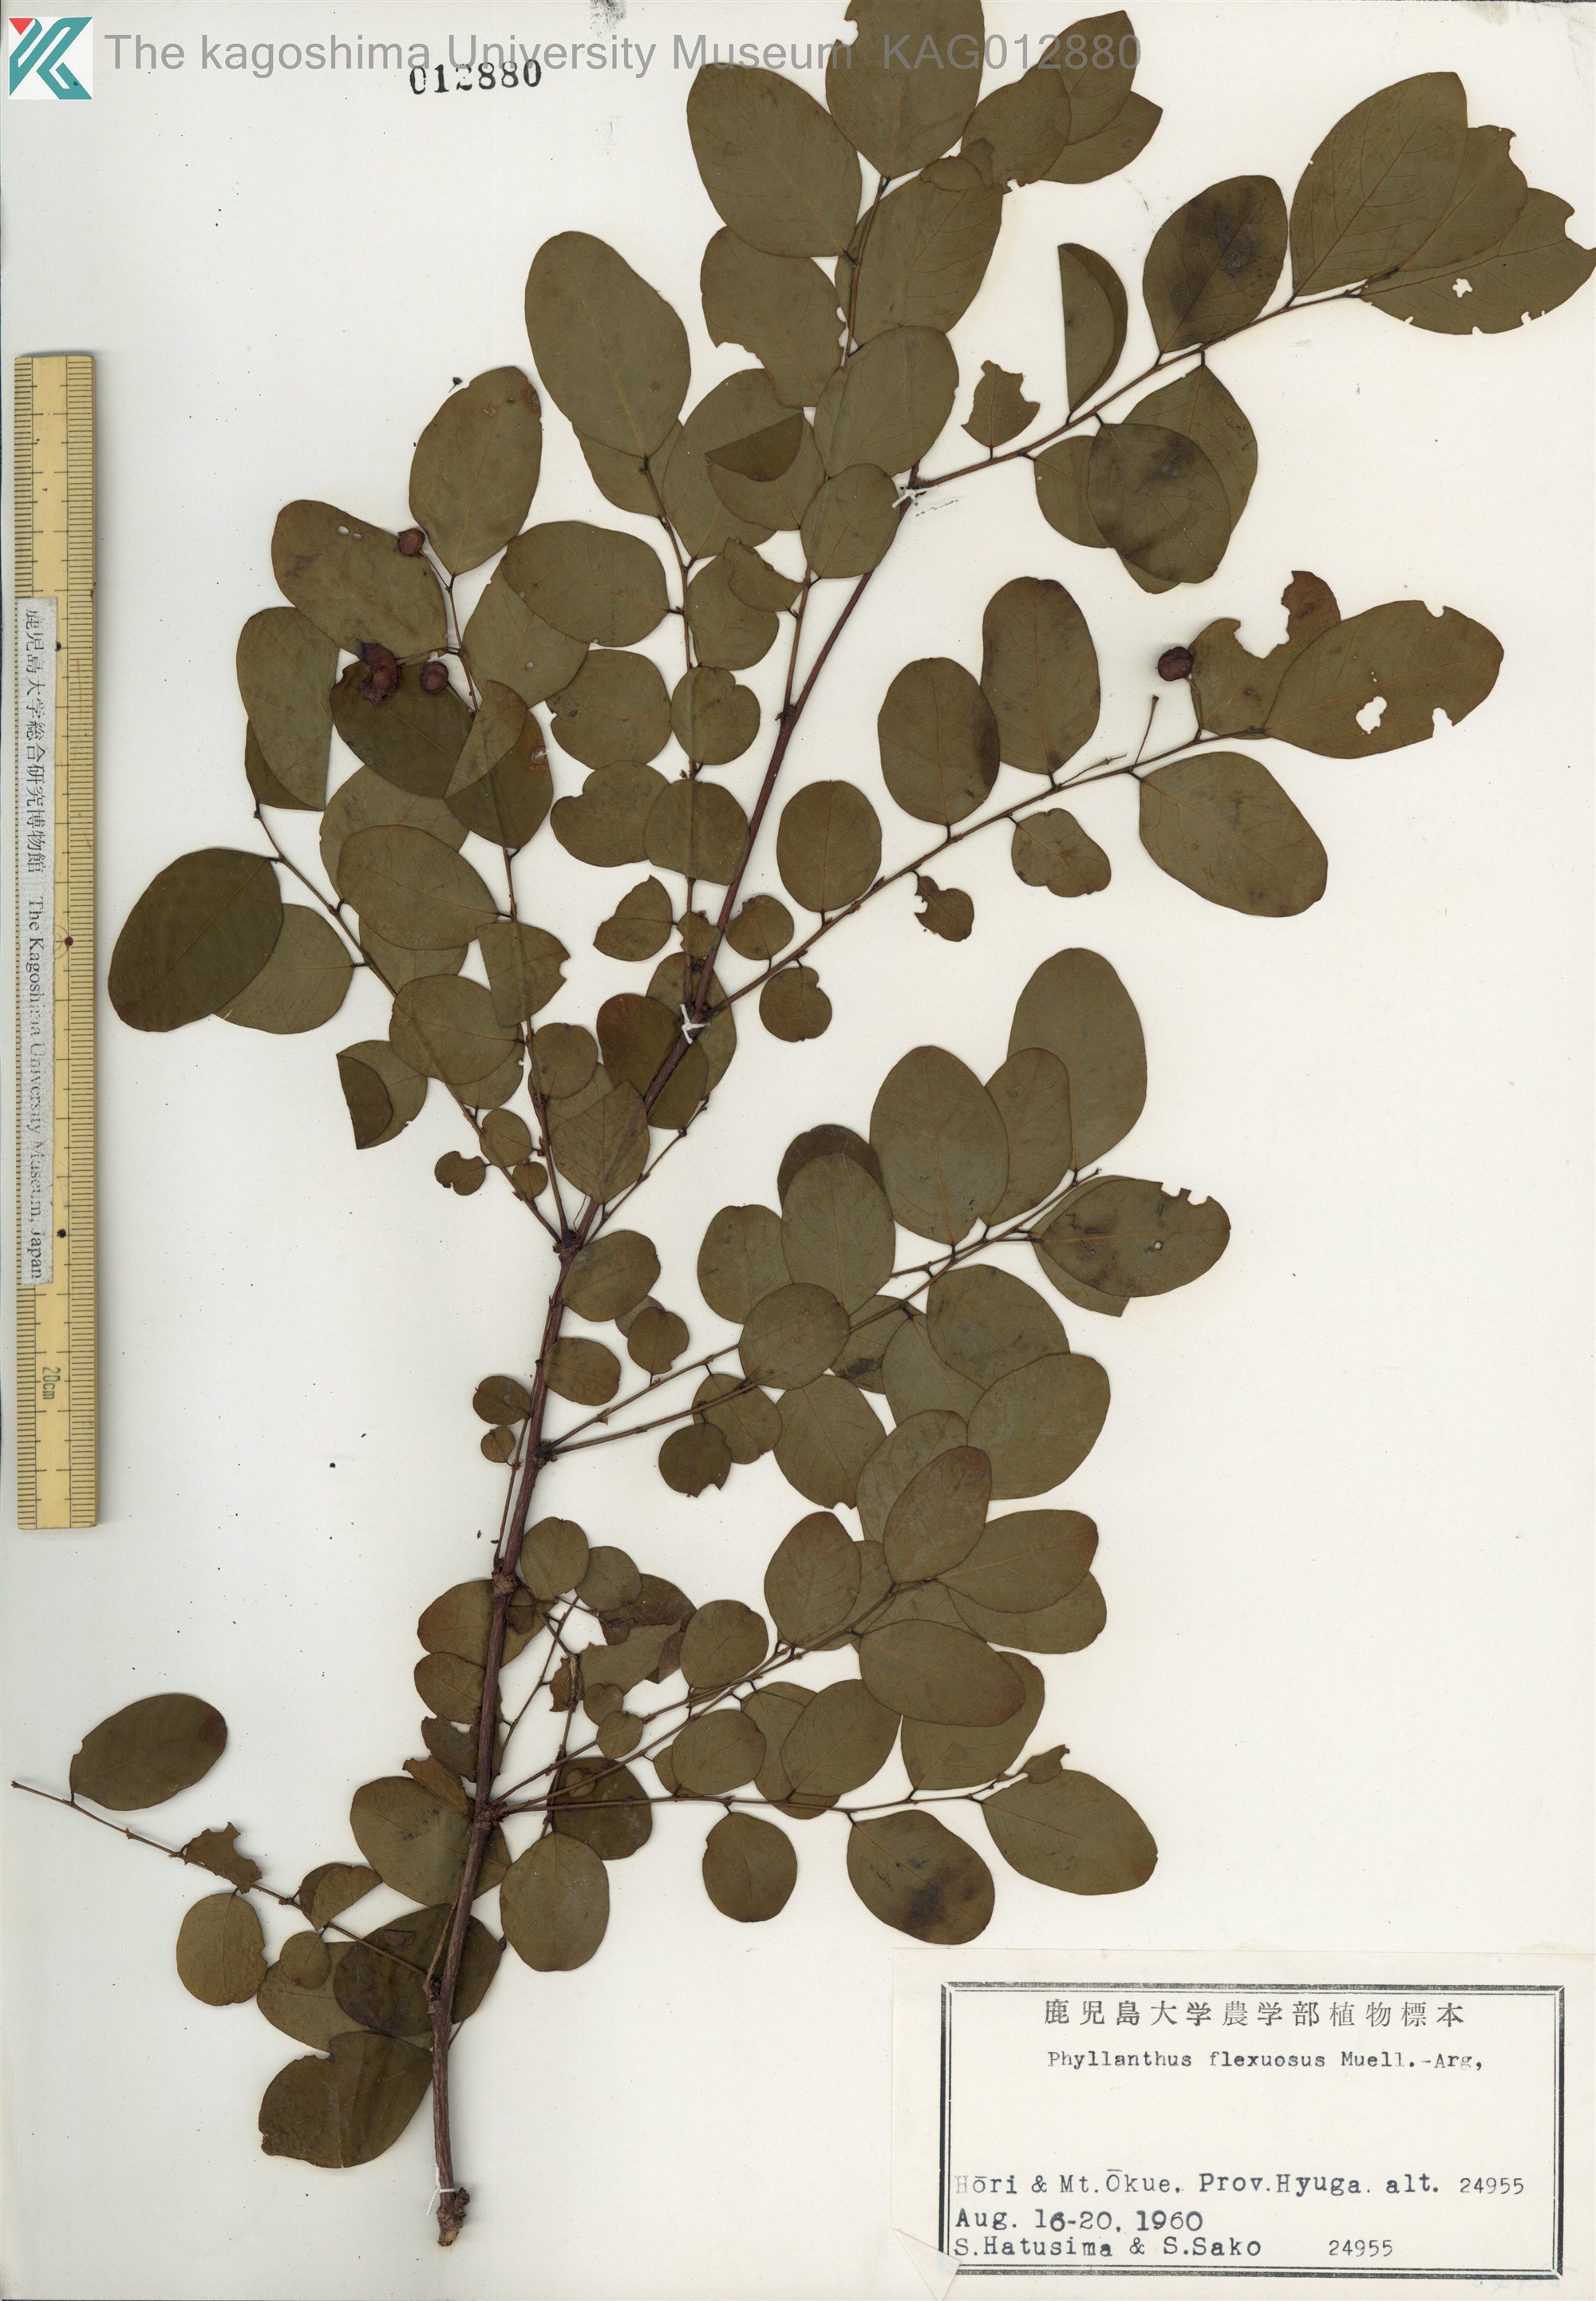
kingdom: Plantae
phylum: Tracheophyta
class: Magnoliopsida
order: Malpighiales
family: Phyllanthaceae
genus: Phyllanthus
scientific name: Phyllanthus flexuosus
